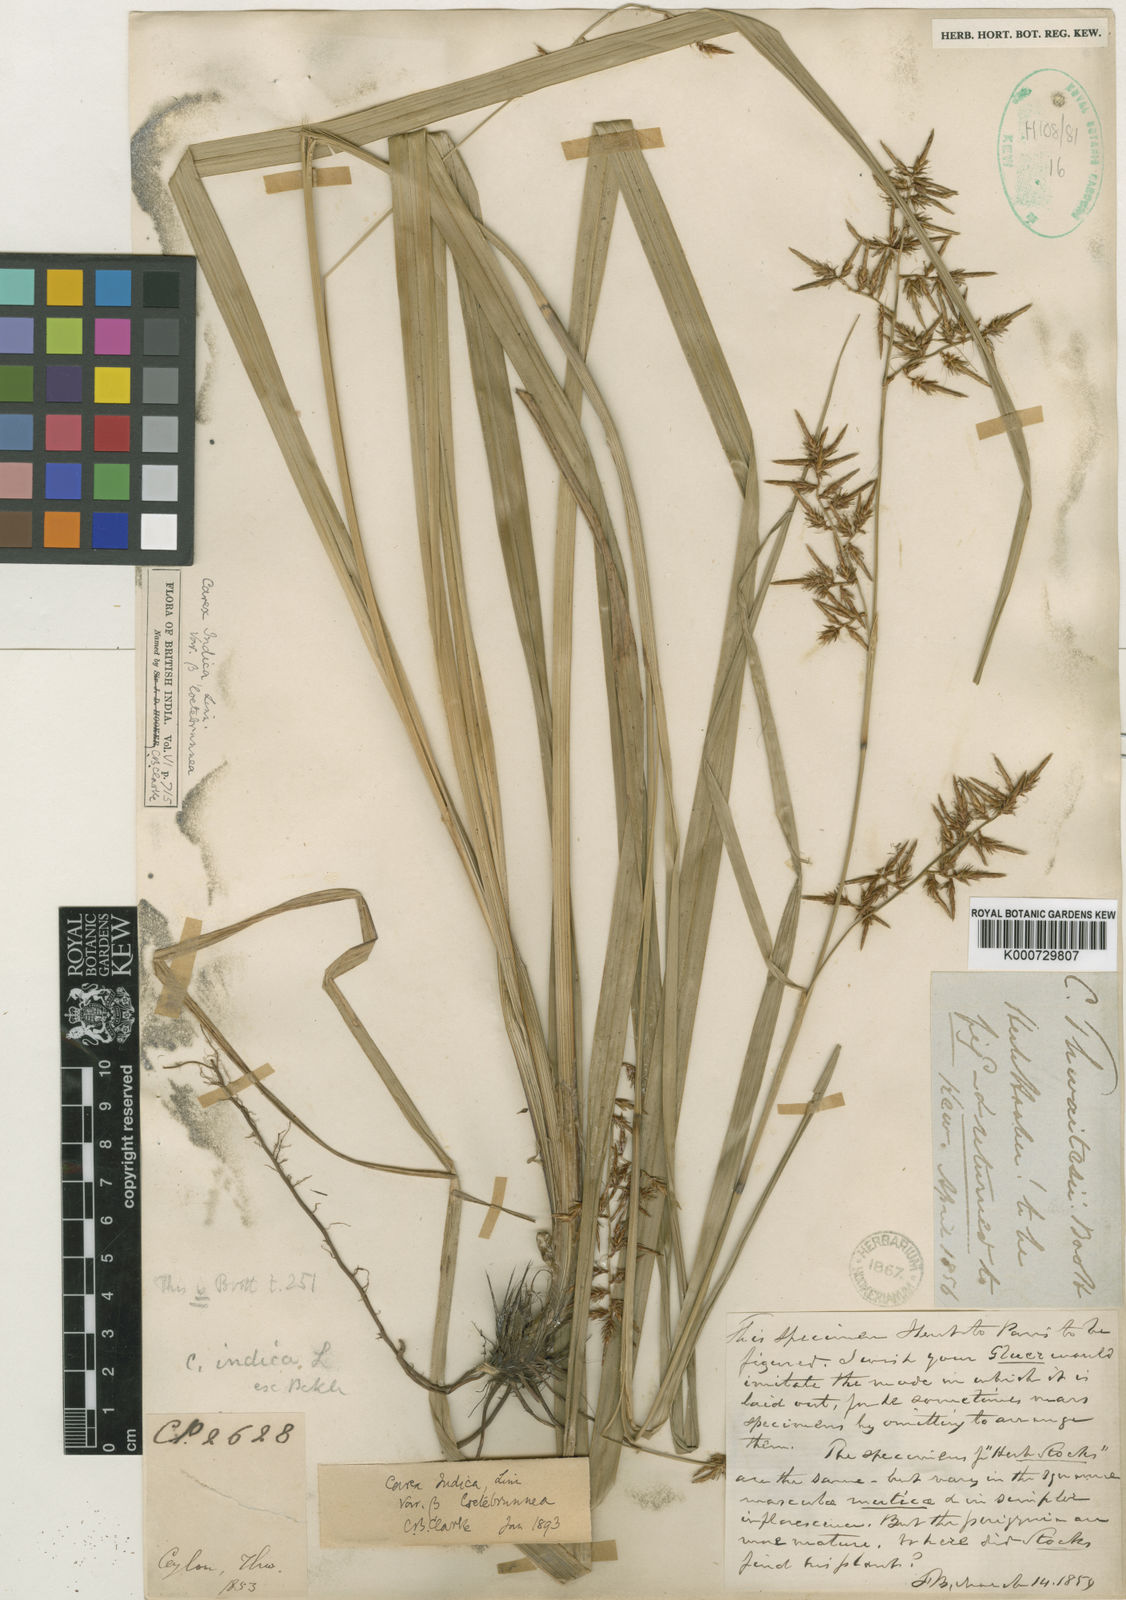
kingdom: Plantae
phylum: Tracheophyta
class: Liliopsida
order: Poales
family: Cyperaceae
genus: Carex
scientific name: Carex indica
